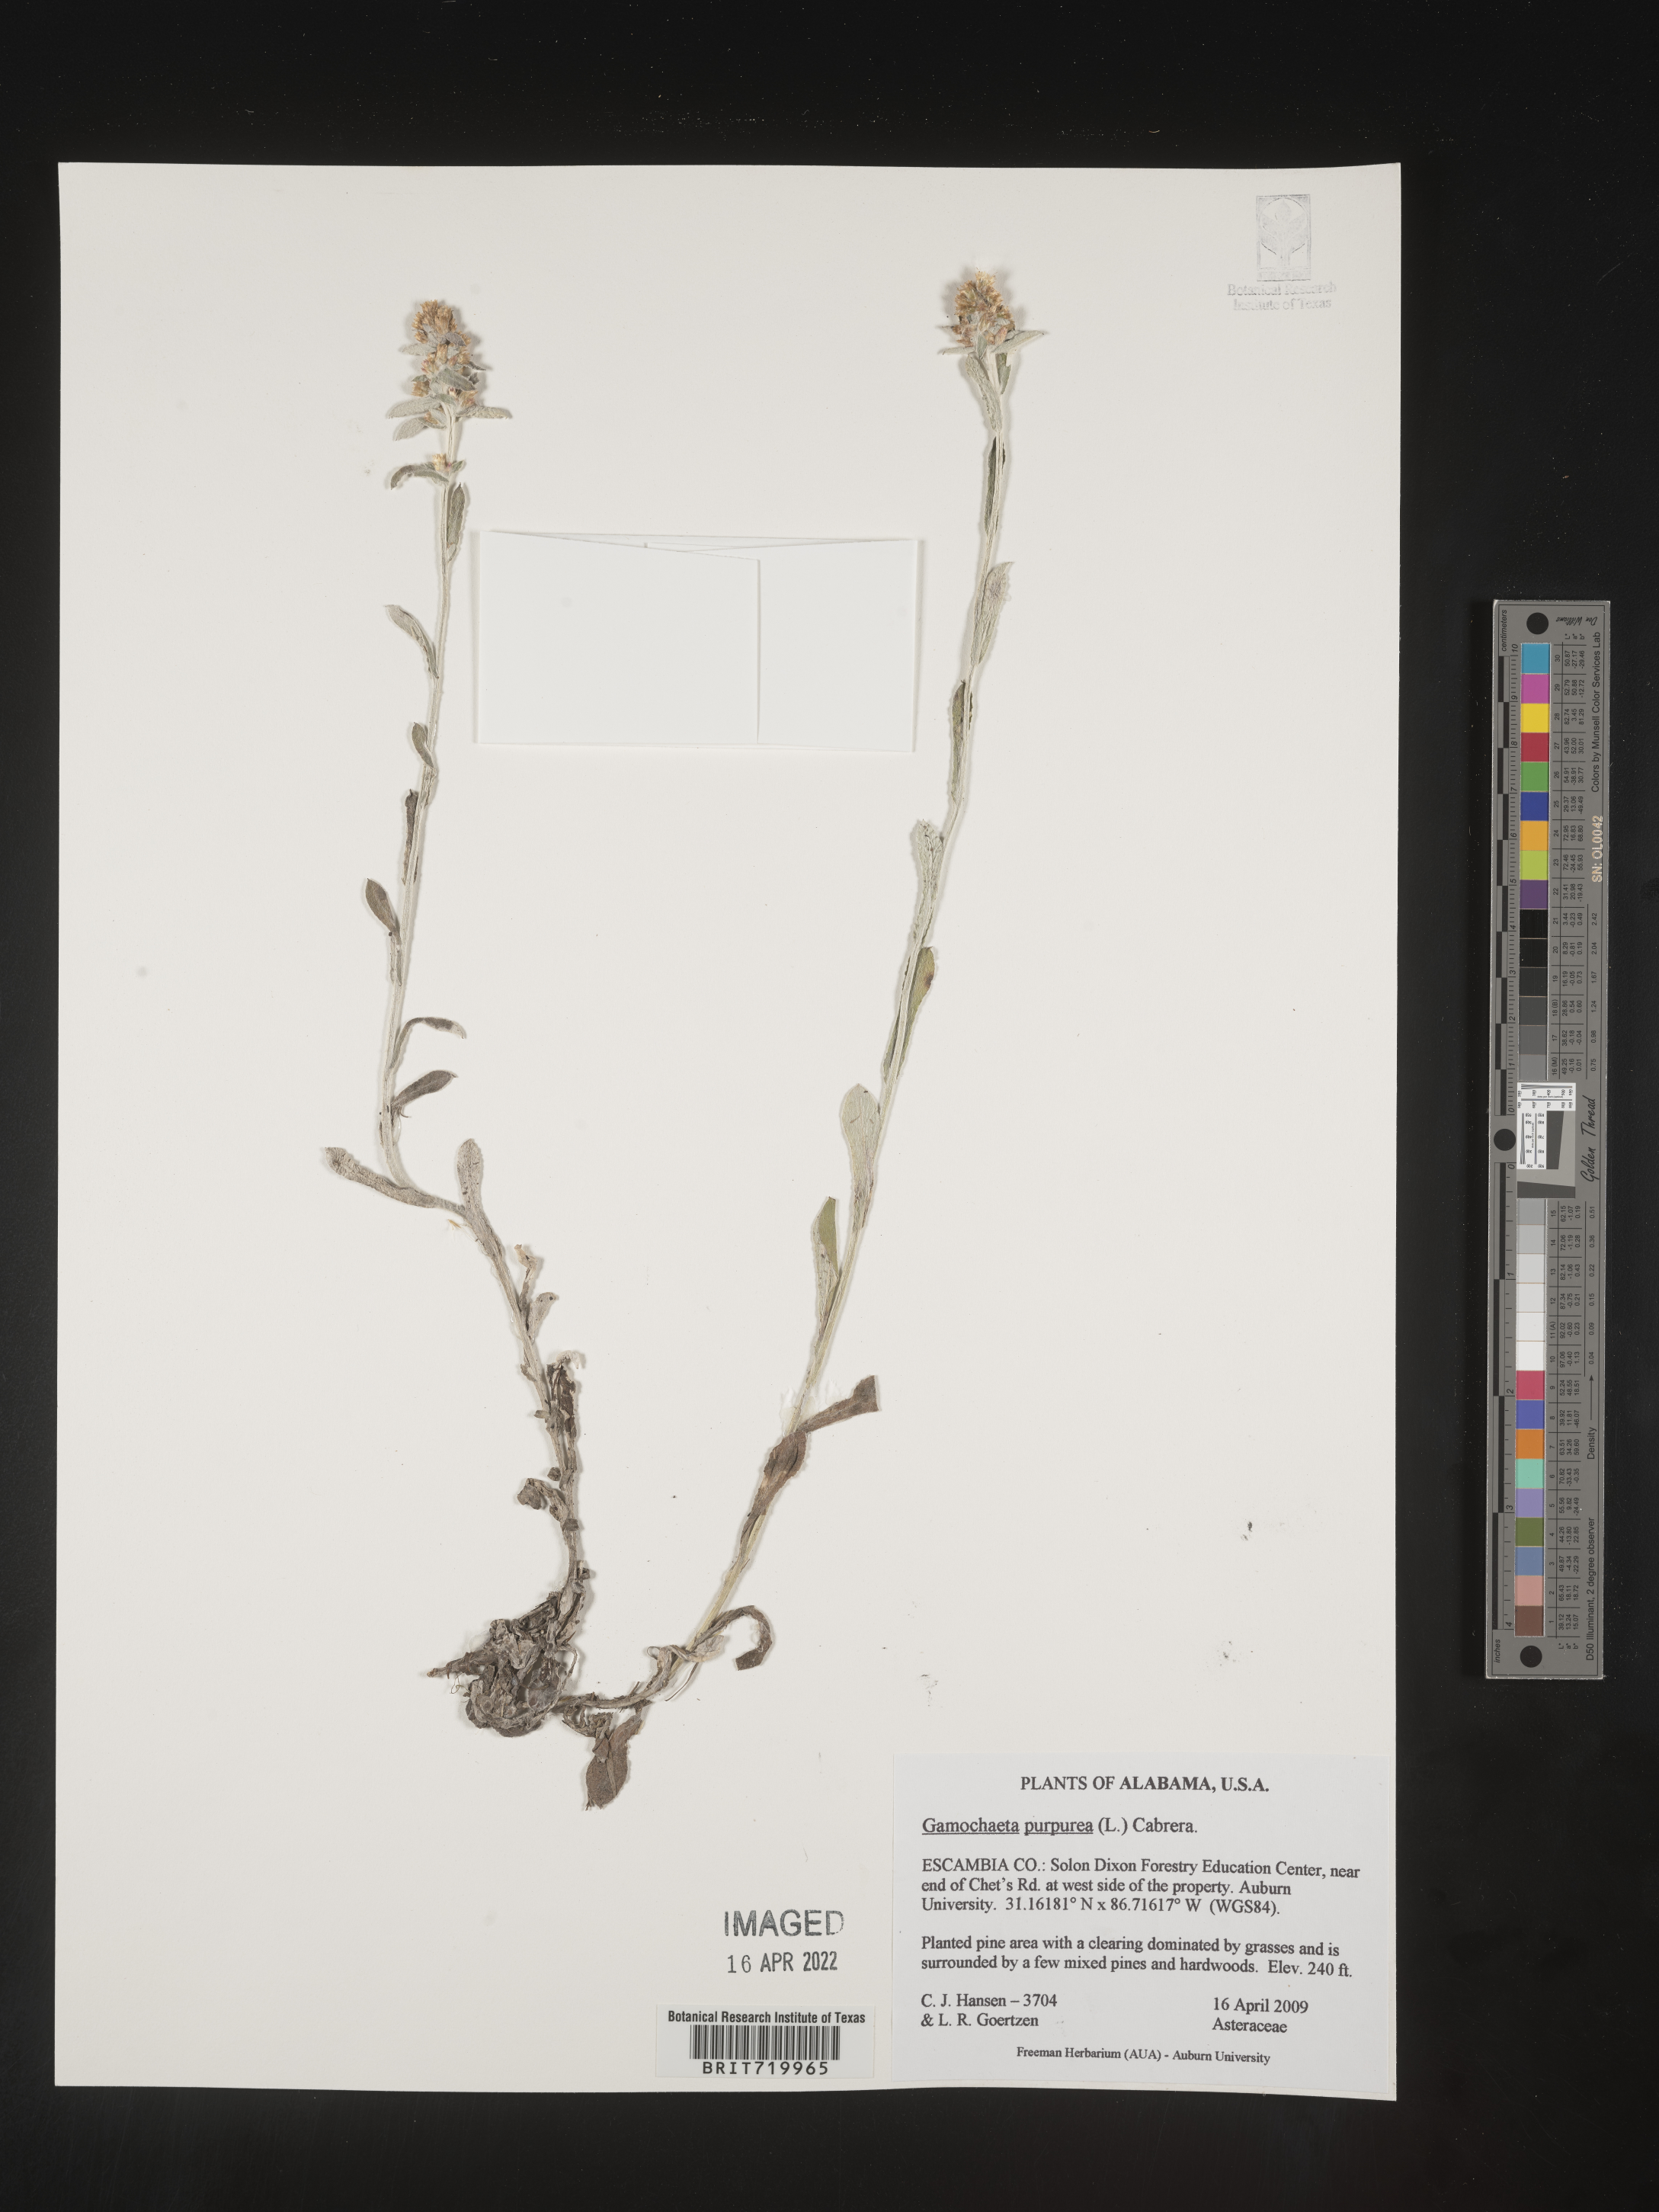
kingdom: Plantae
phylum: Tracheophyta
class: Magnoliopsida
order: Asterales
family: Asteraceae
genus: Gamochaeta
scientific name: Gamochaeta purpurea
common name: Purple cudweed
